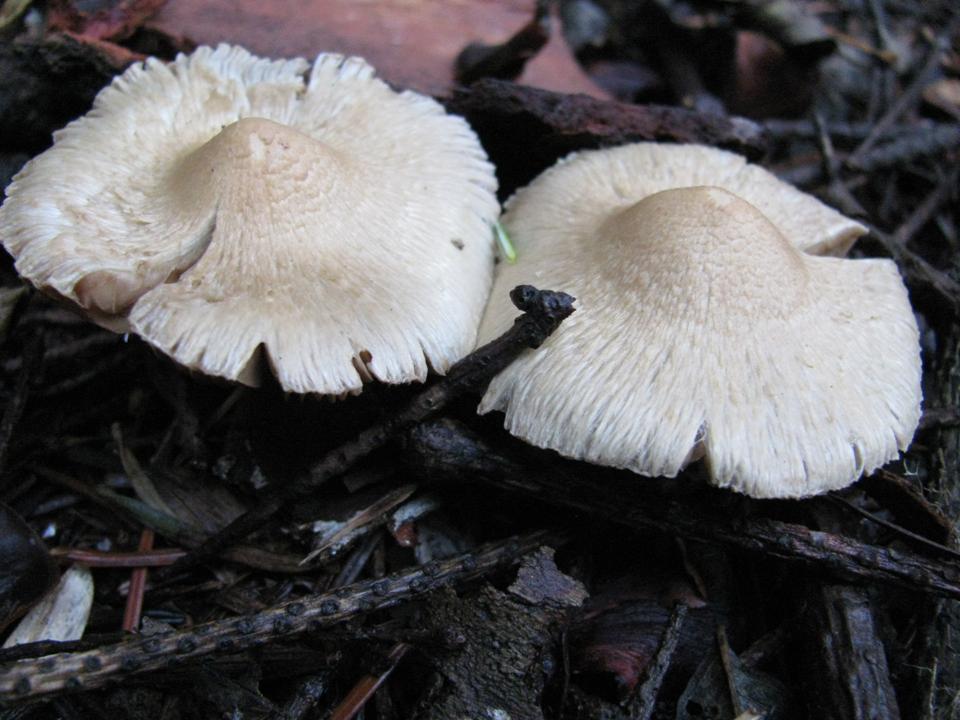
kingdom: Fungi
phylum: Basidiomycota
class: Agaricomycetes
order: Agaricales
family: Inocybaceae
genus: Inocybe
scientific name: Inocybe sindonia
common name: bleg trævlhat
